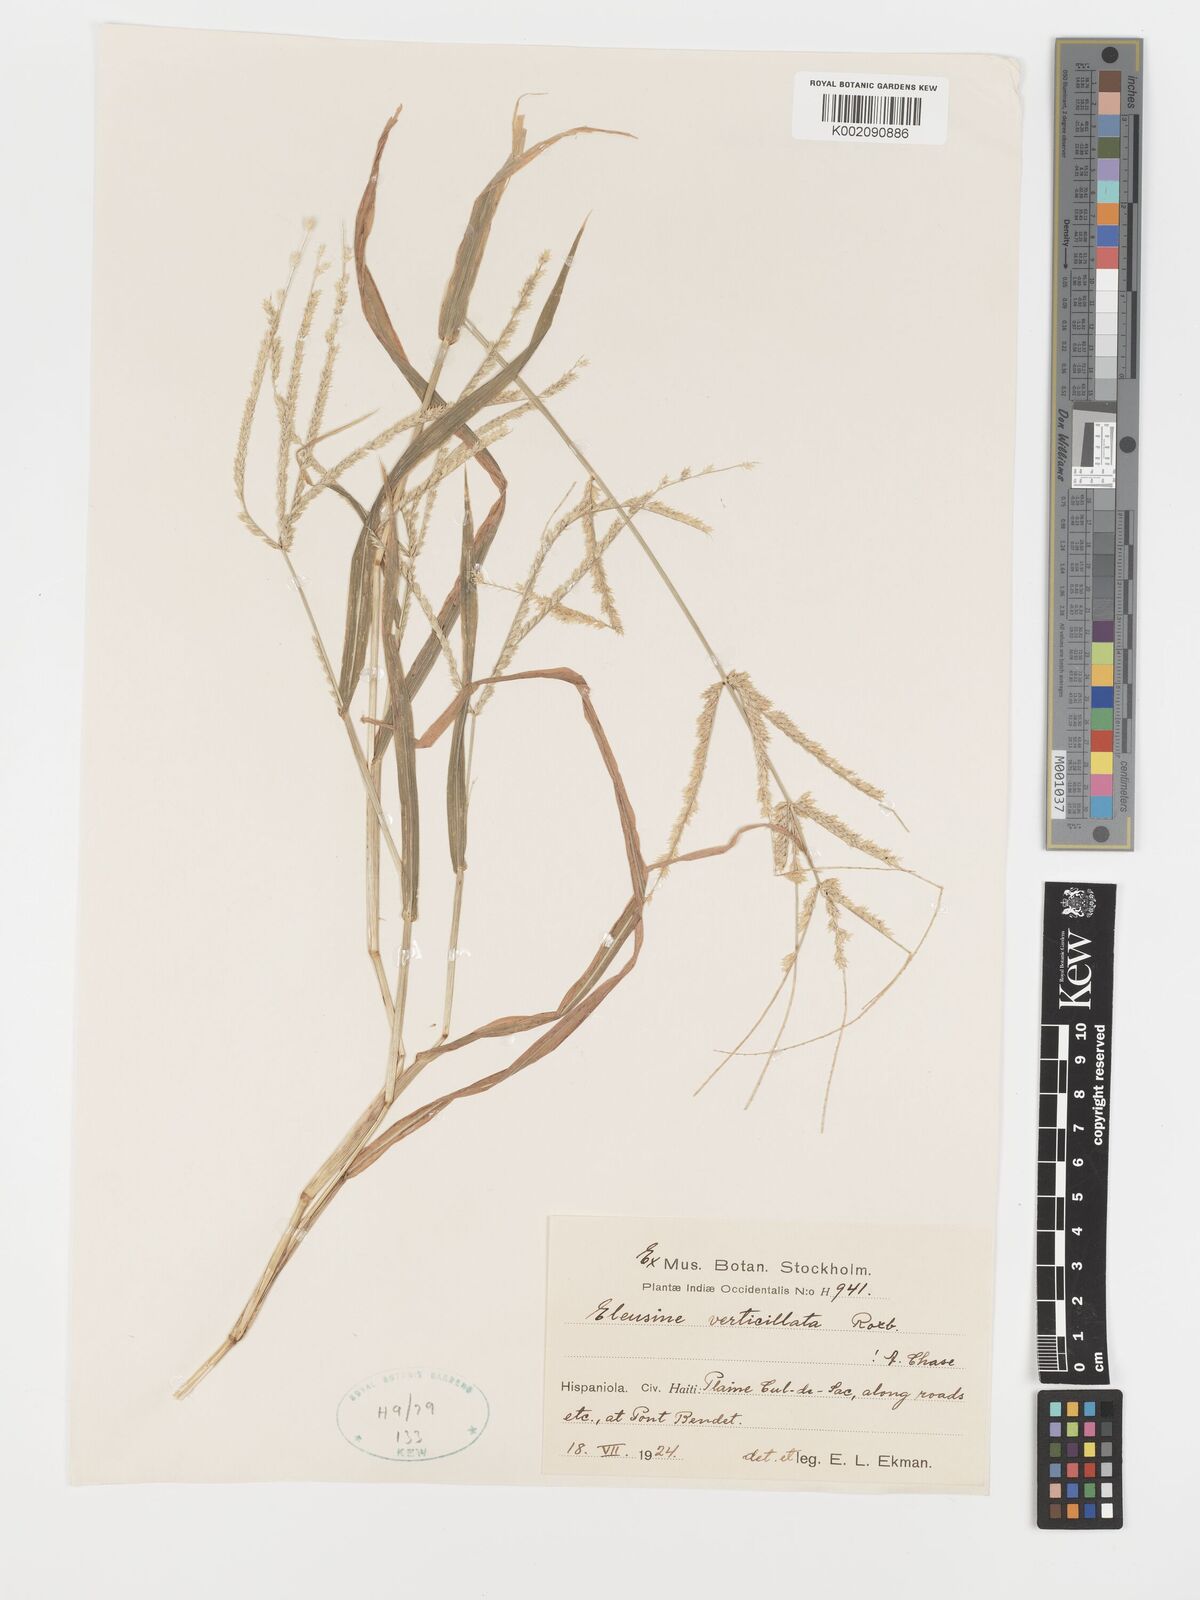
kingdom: Plantae
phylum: Tracheophyta
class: Liliopsida
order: Poales
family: Poaceae
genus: Acrachne
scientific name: Acrachne racemosa
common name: Goosegrass
